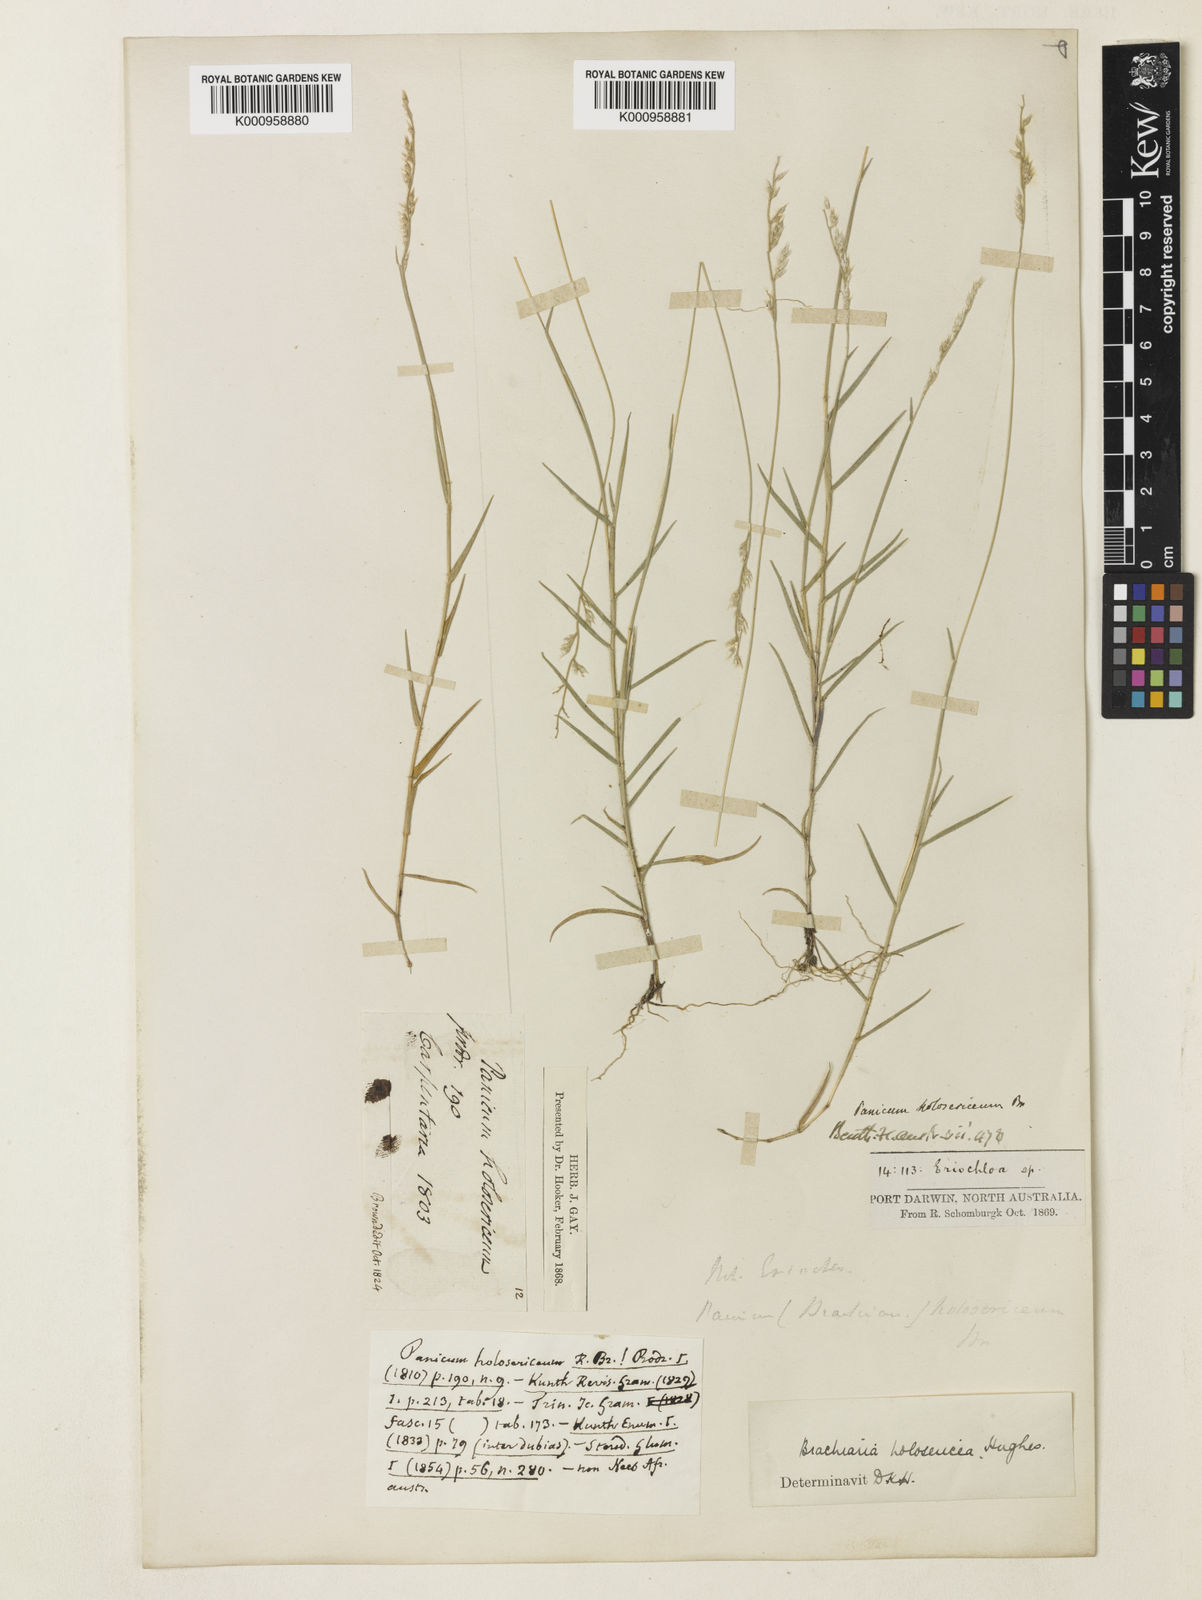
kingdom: Plantae
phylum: Tracheophyta
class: Liliopsida
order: Poales
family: Poaceae
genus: Urochloa
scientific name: Urochloa holosericea
